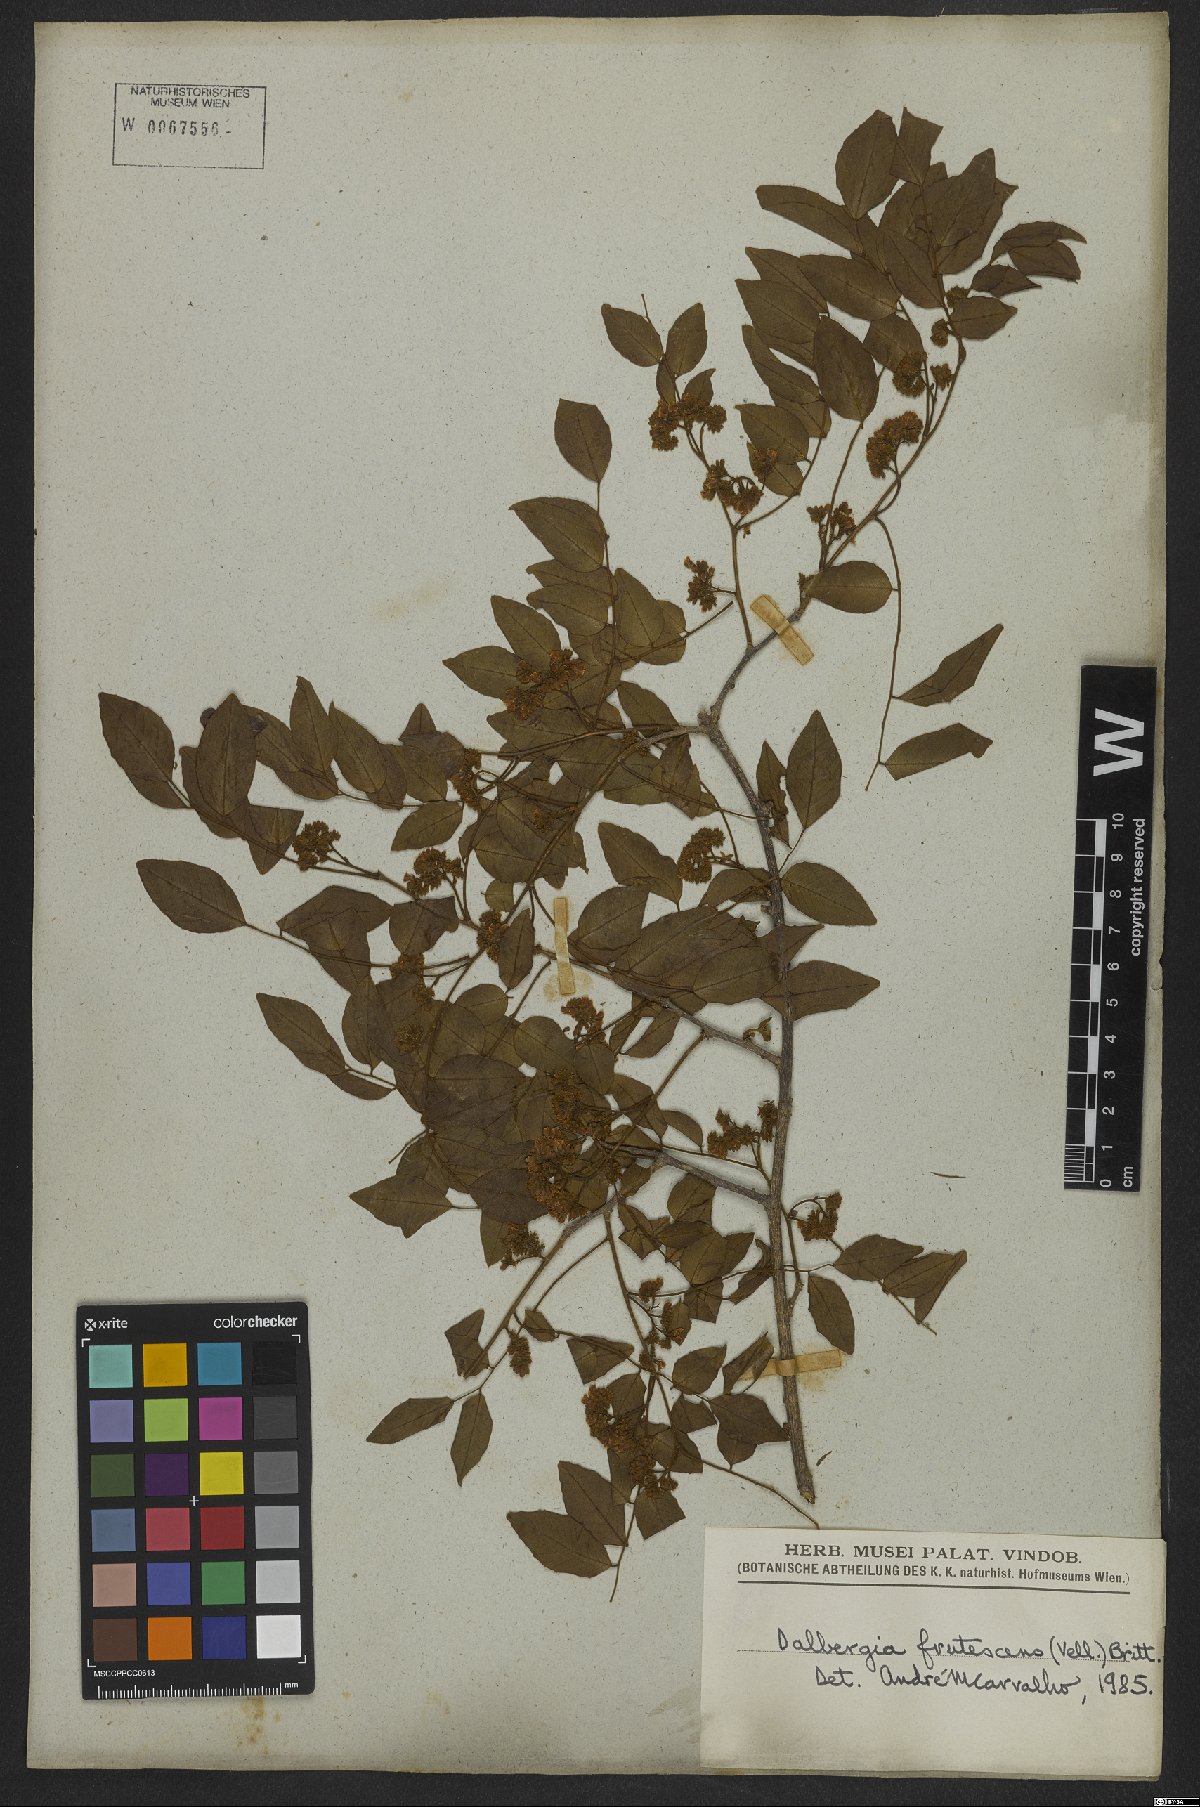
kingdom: Plantae
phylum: Tracheophyta
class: Magnoliopsida
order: Fabales
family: Fabaceae
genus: Dalbergia
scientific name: Dalbergia frutescens
